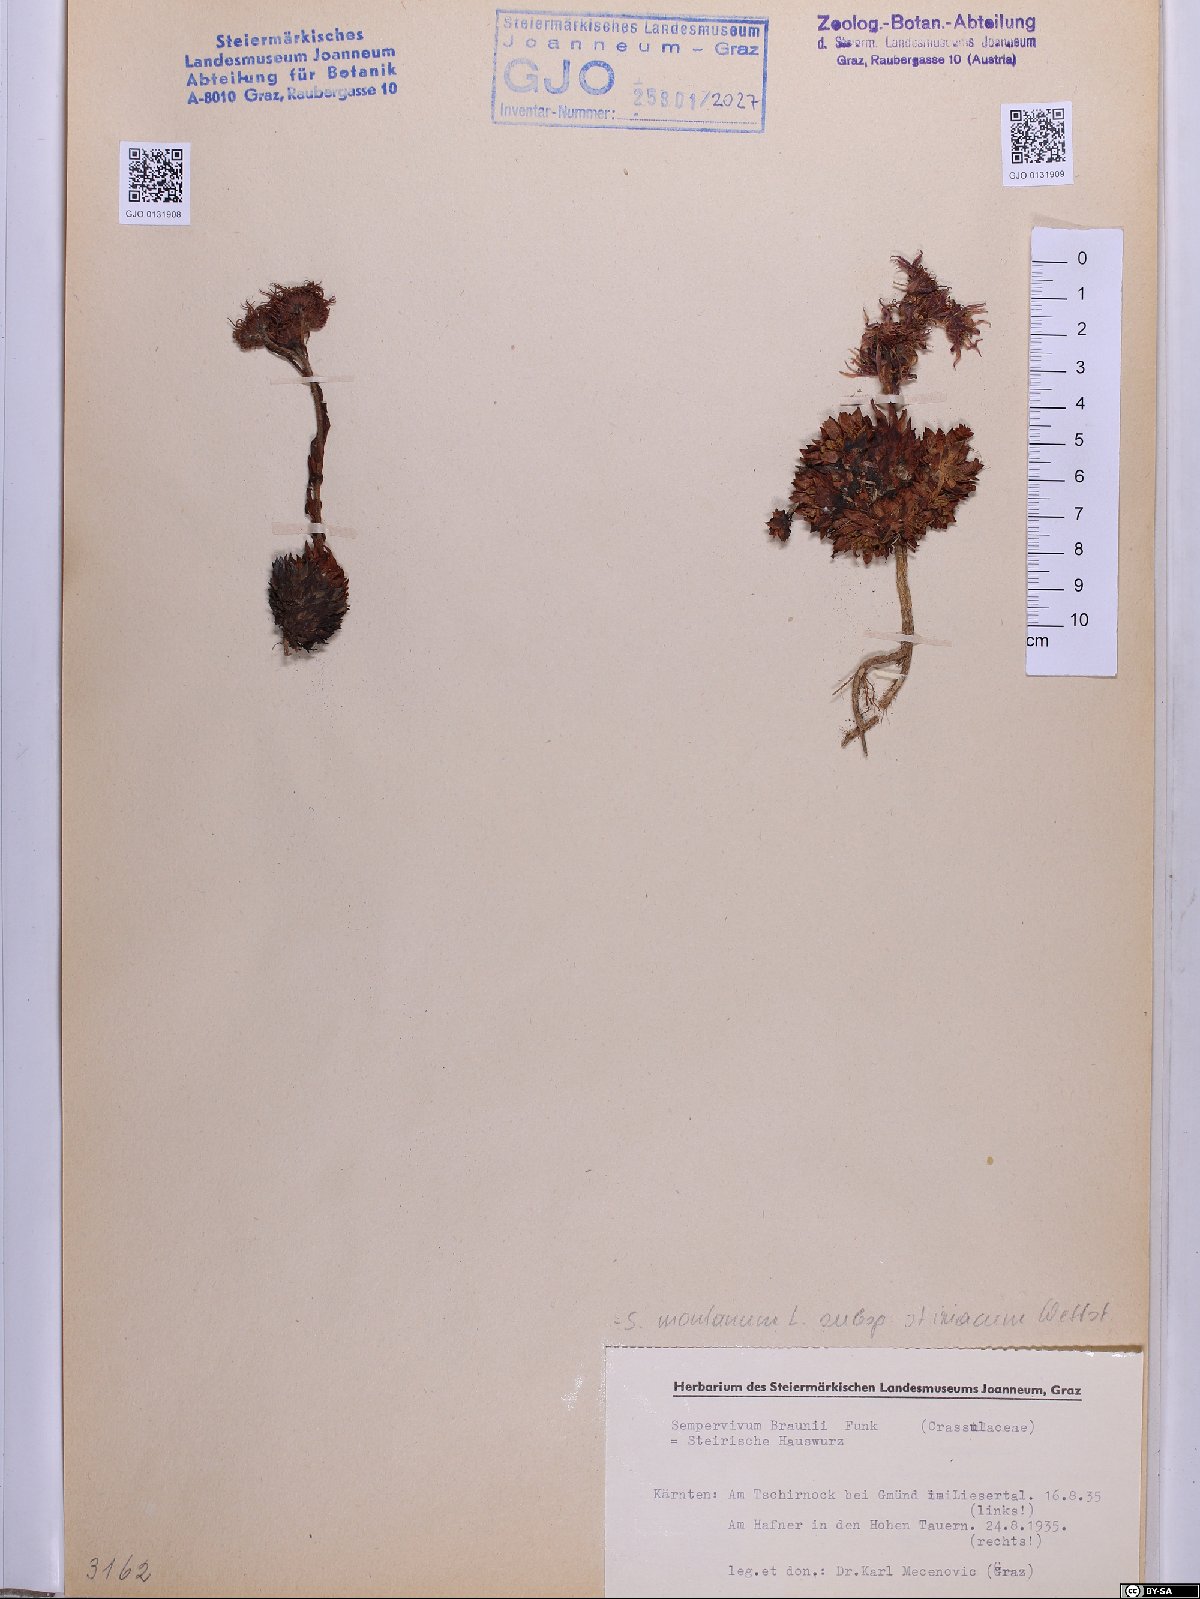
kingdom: Plantae
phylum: Tracheophyta
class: Magnoliopsida
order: Saxifragales
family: Crassulaceae
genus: Sempervivum
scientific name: Sempervivum montanum
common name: Mountain house-leek
